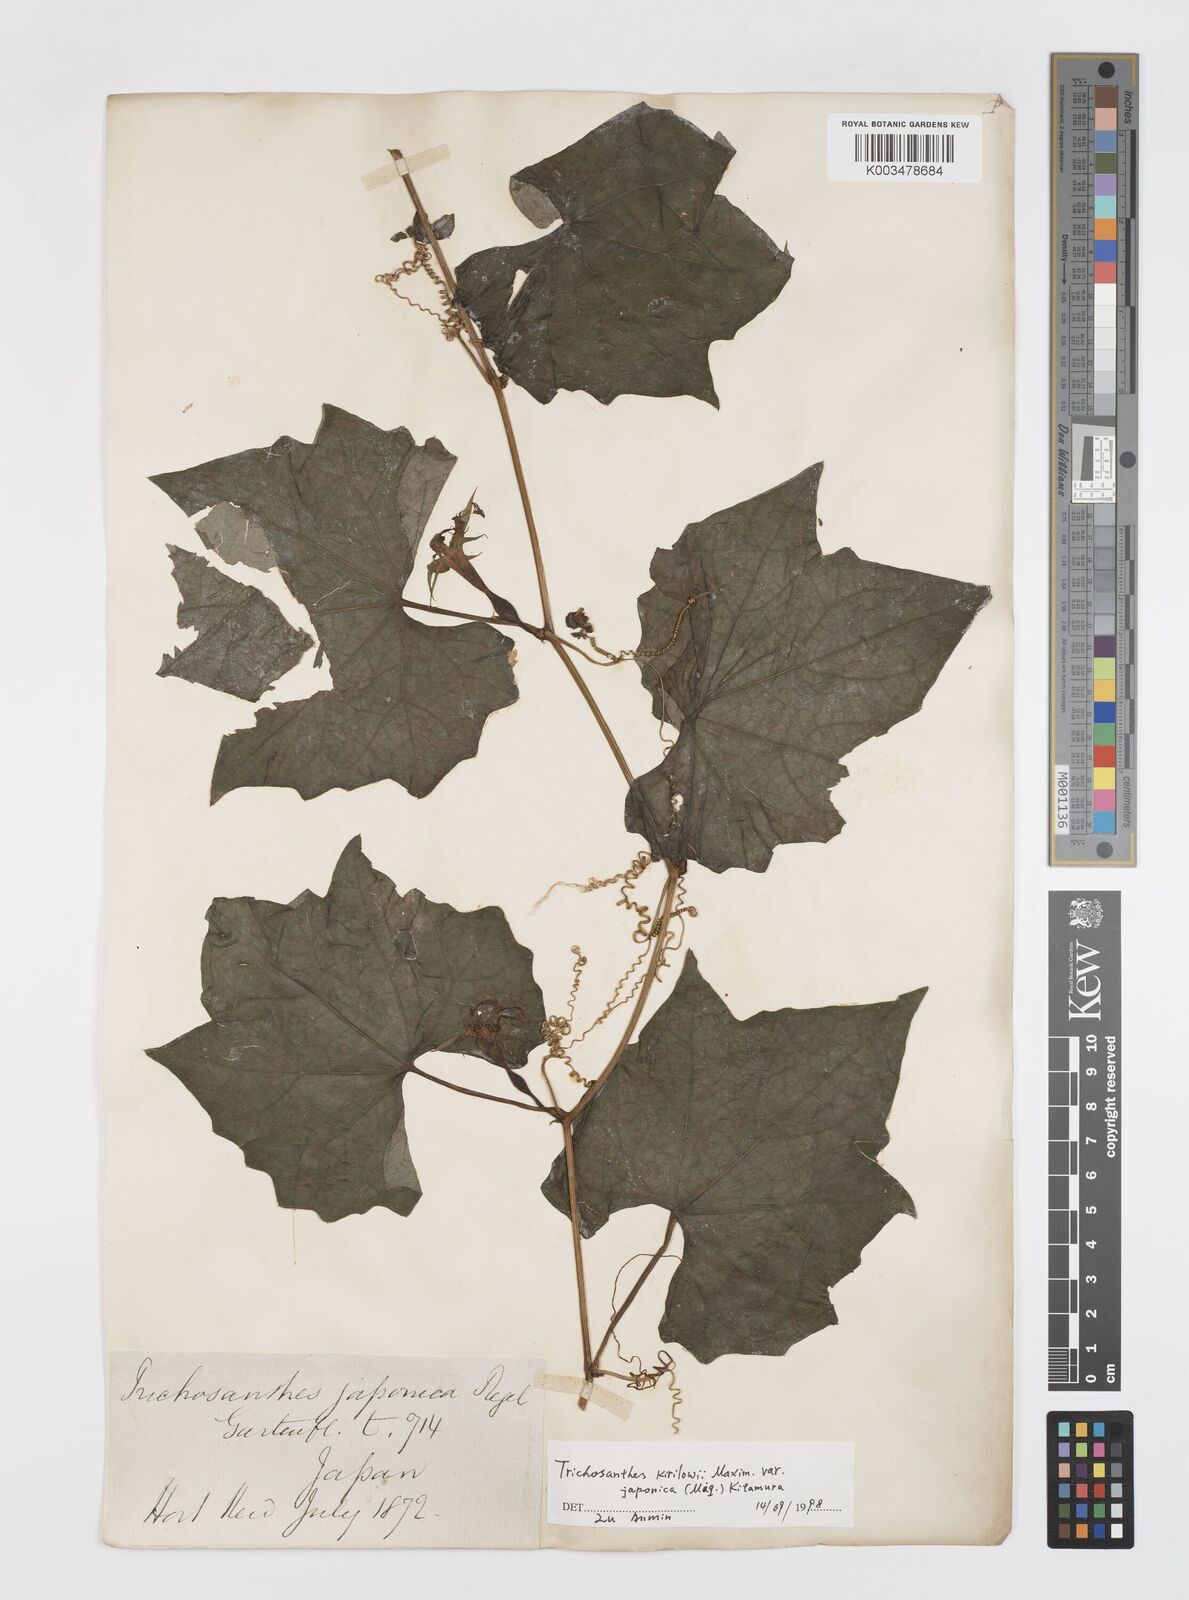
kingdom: Plantae
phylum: Tracheophyta
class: Magnoliopsida
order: Cucurbitales
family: Cucurbitaceae
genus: Trichosanthes
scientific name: Trichosanthes kirilowii
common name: Chinese-cucumber
